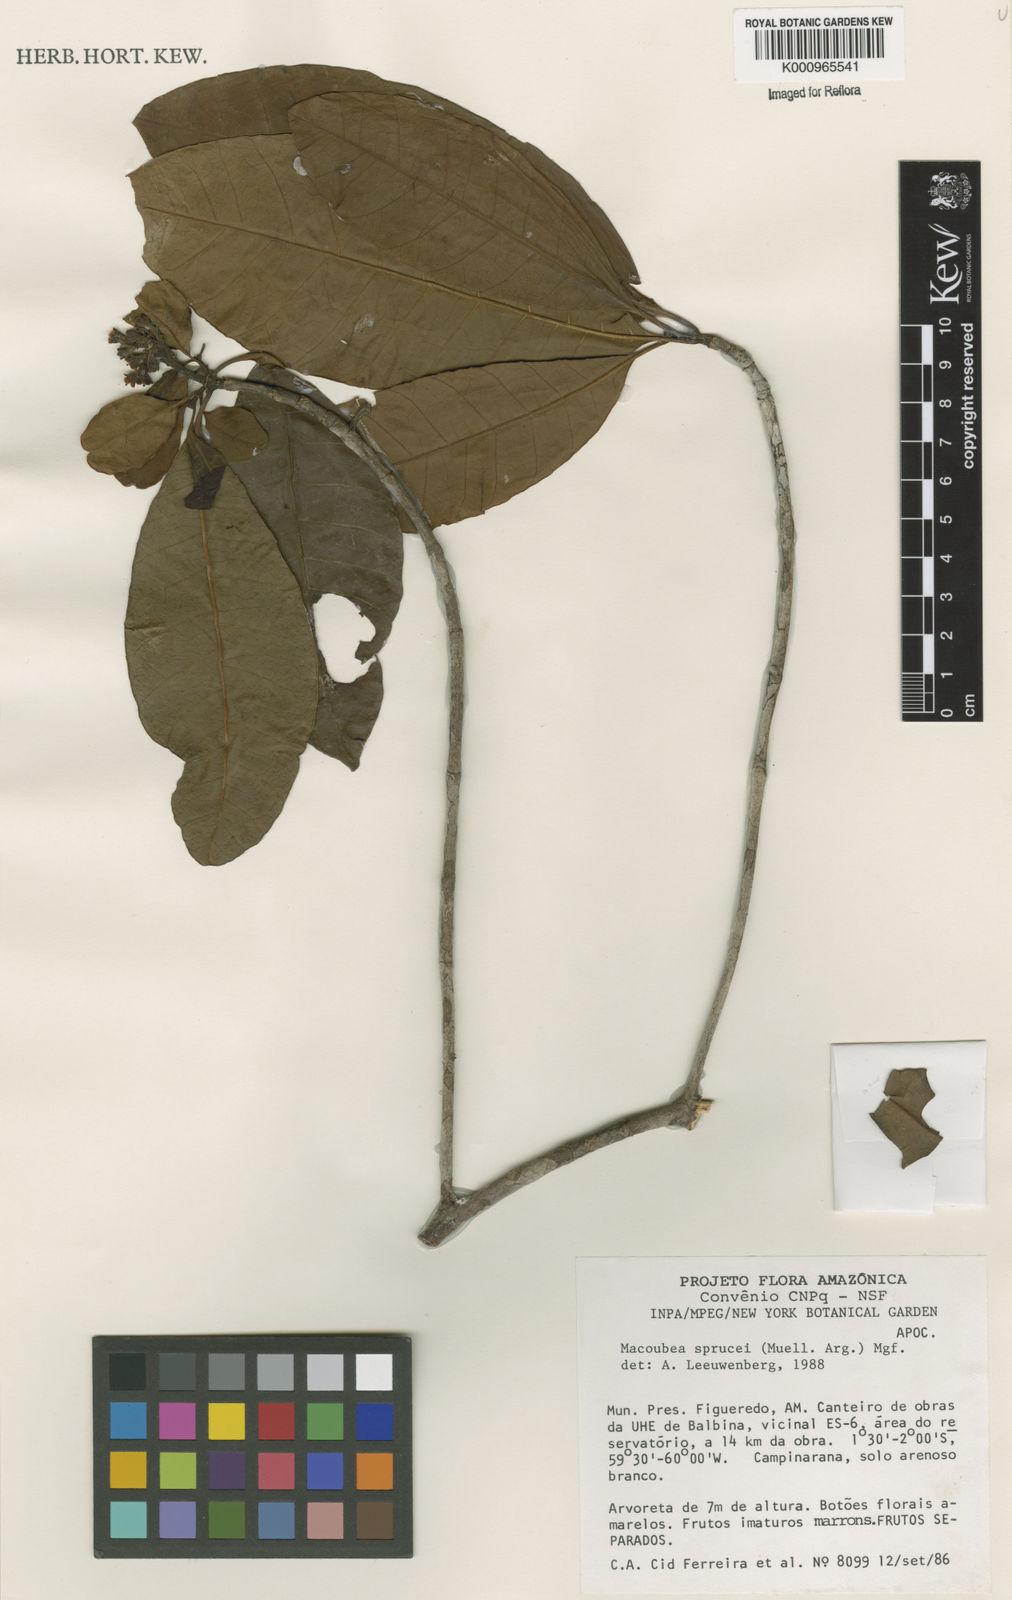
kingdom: Plantae
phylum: Tracheophyta
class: Magnoliopsida
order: Gentianales
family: Apocynaceae
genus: Macoubea
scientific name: Macoubea
